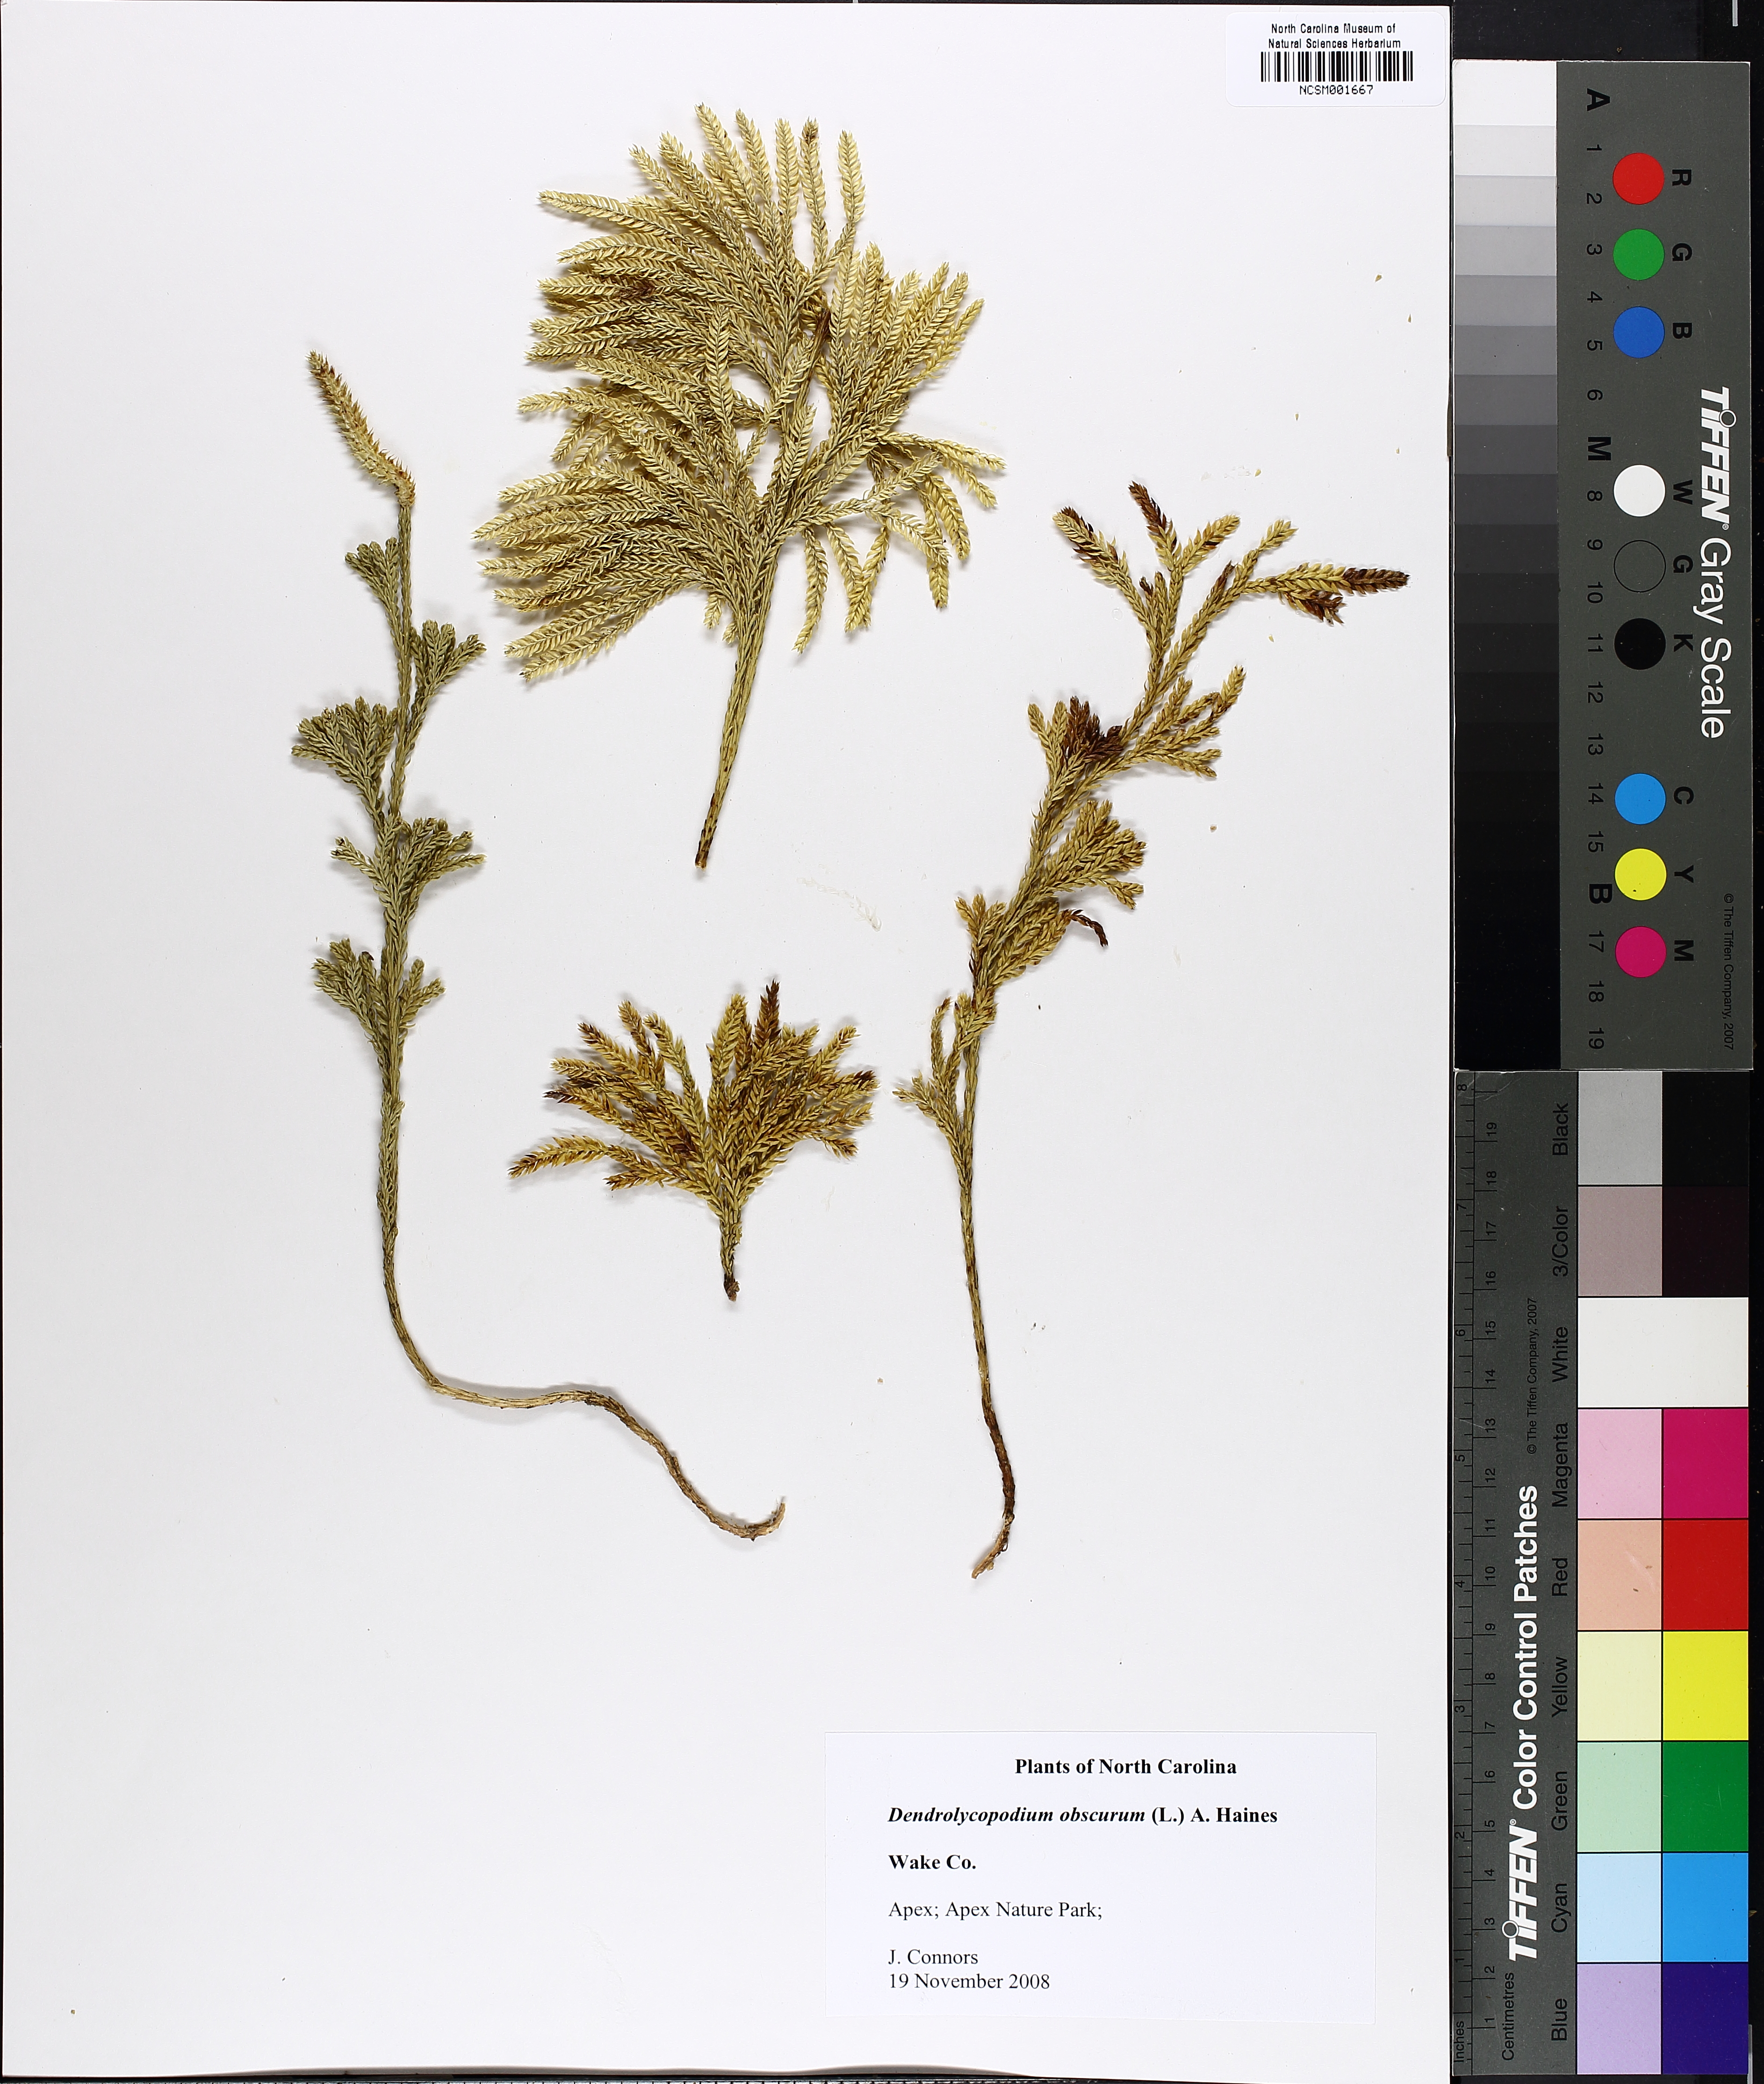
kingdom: Plantae
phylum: Tracheophyta
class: Lycopodiopsida
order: Lycopodiales
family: Lycopodiaceae
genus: Dendrolycopodium
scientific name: Dendrolycopodium obscurum
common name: Common ground-pine
